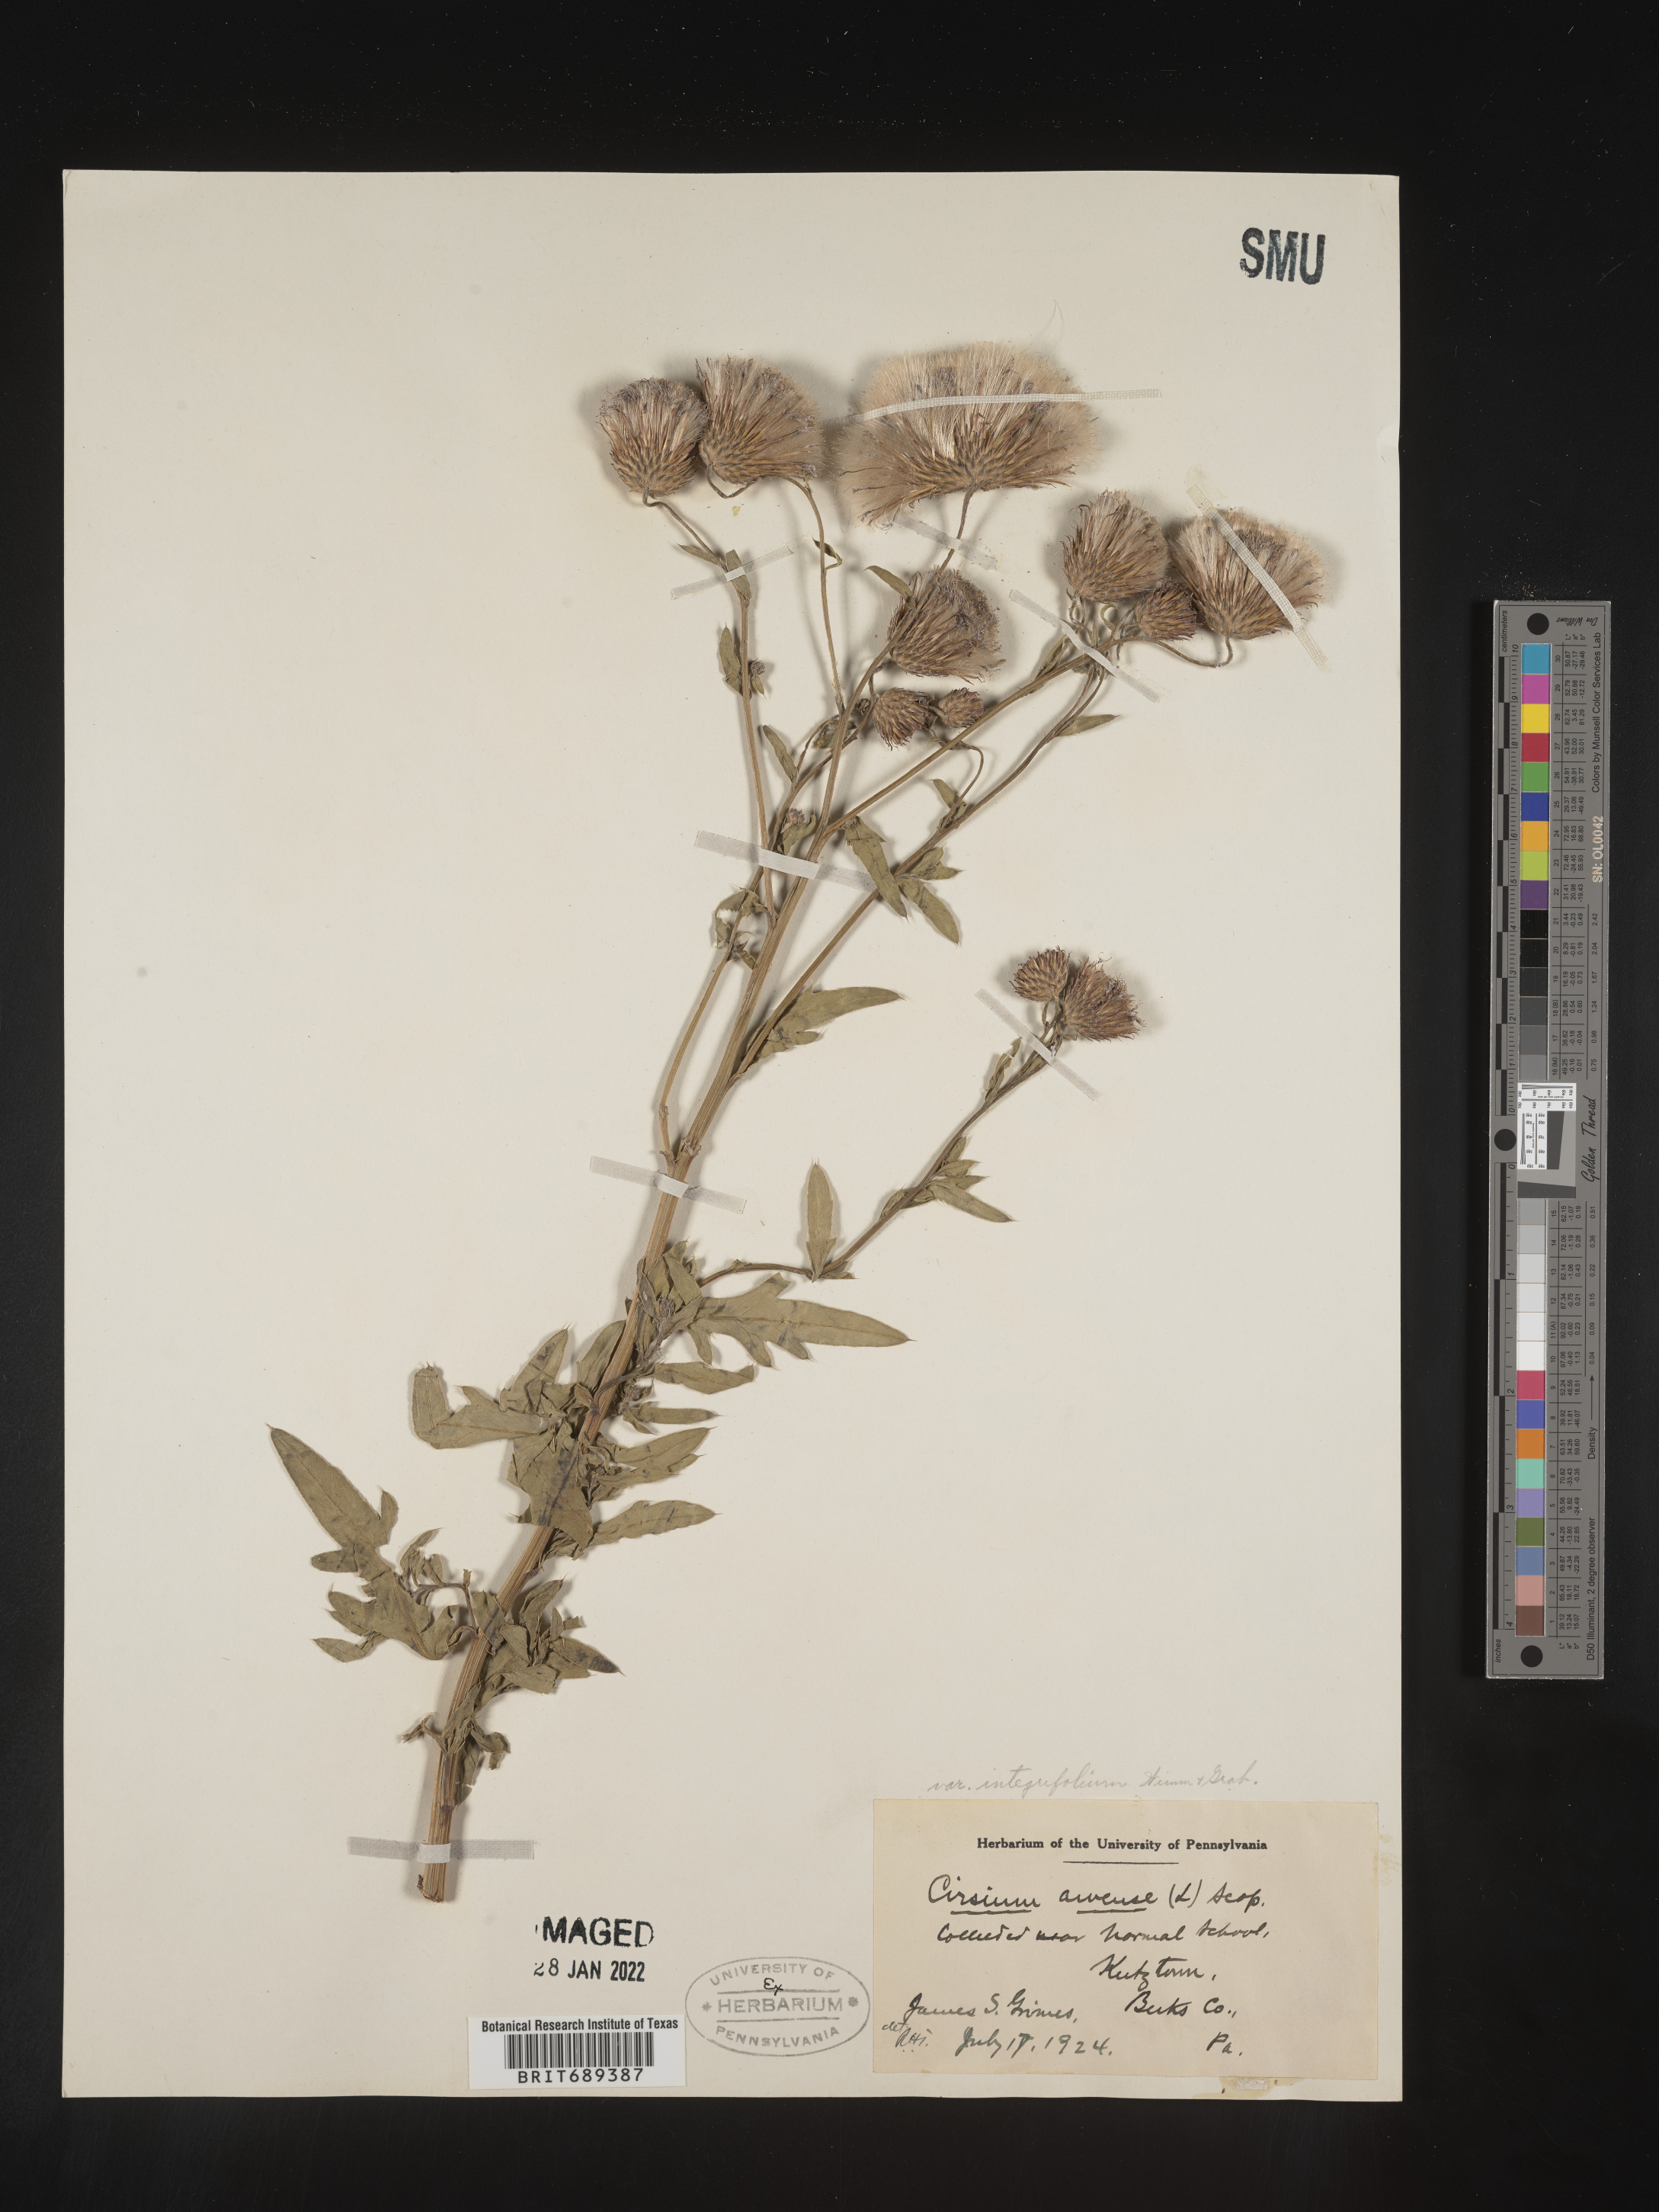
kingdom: Plantae
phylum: Tracheophyta
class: Magnoliopsida
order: Asterales
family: Asteraceae
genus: Cirsium
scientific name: Cirsium arvense
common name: Creeping thistle
